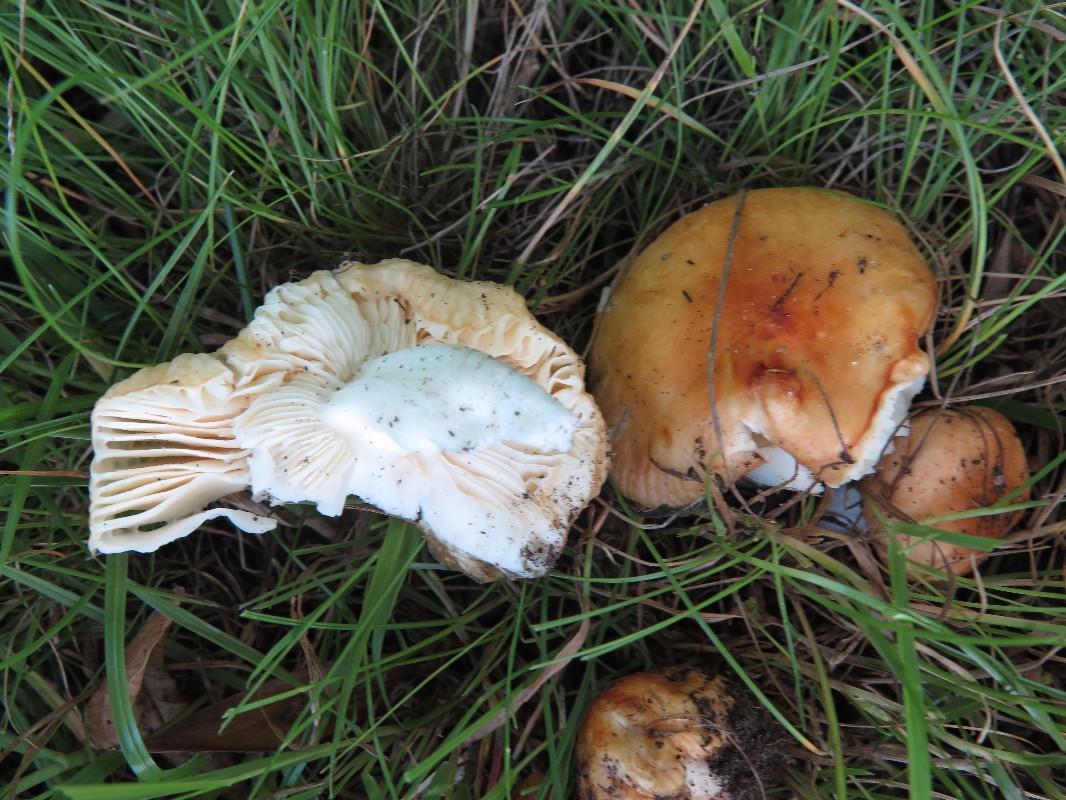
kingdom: Fungi
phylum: Basidiomycota
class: Agaricomycetes
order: Russulales
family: Russulaceae
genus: Russula
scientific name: Russula risigallina
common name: abrikos-skørhat
